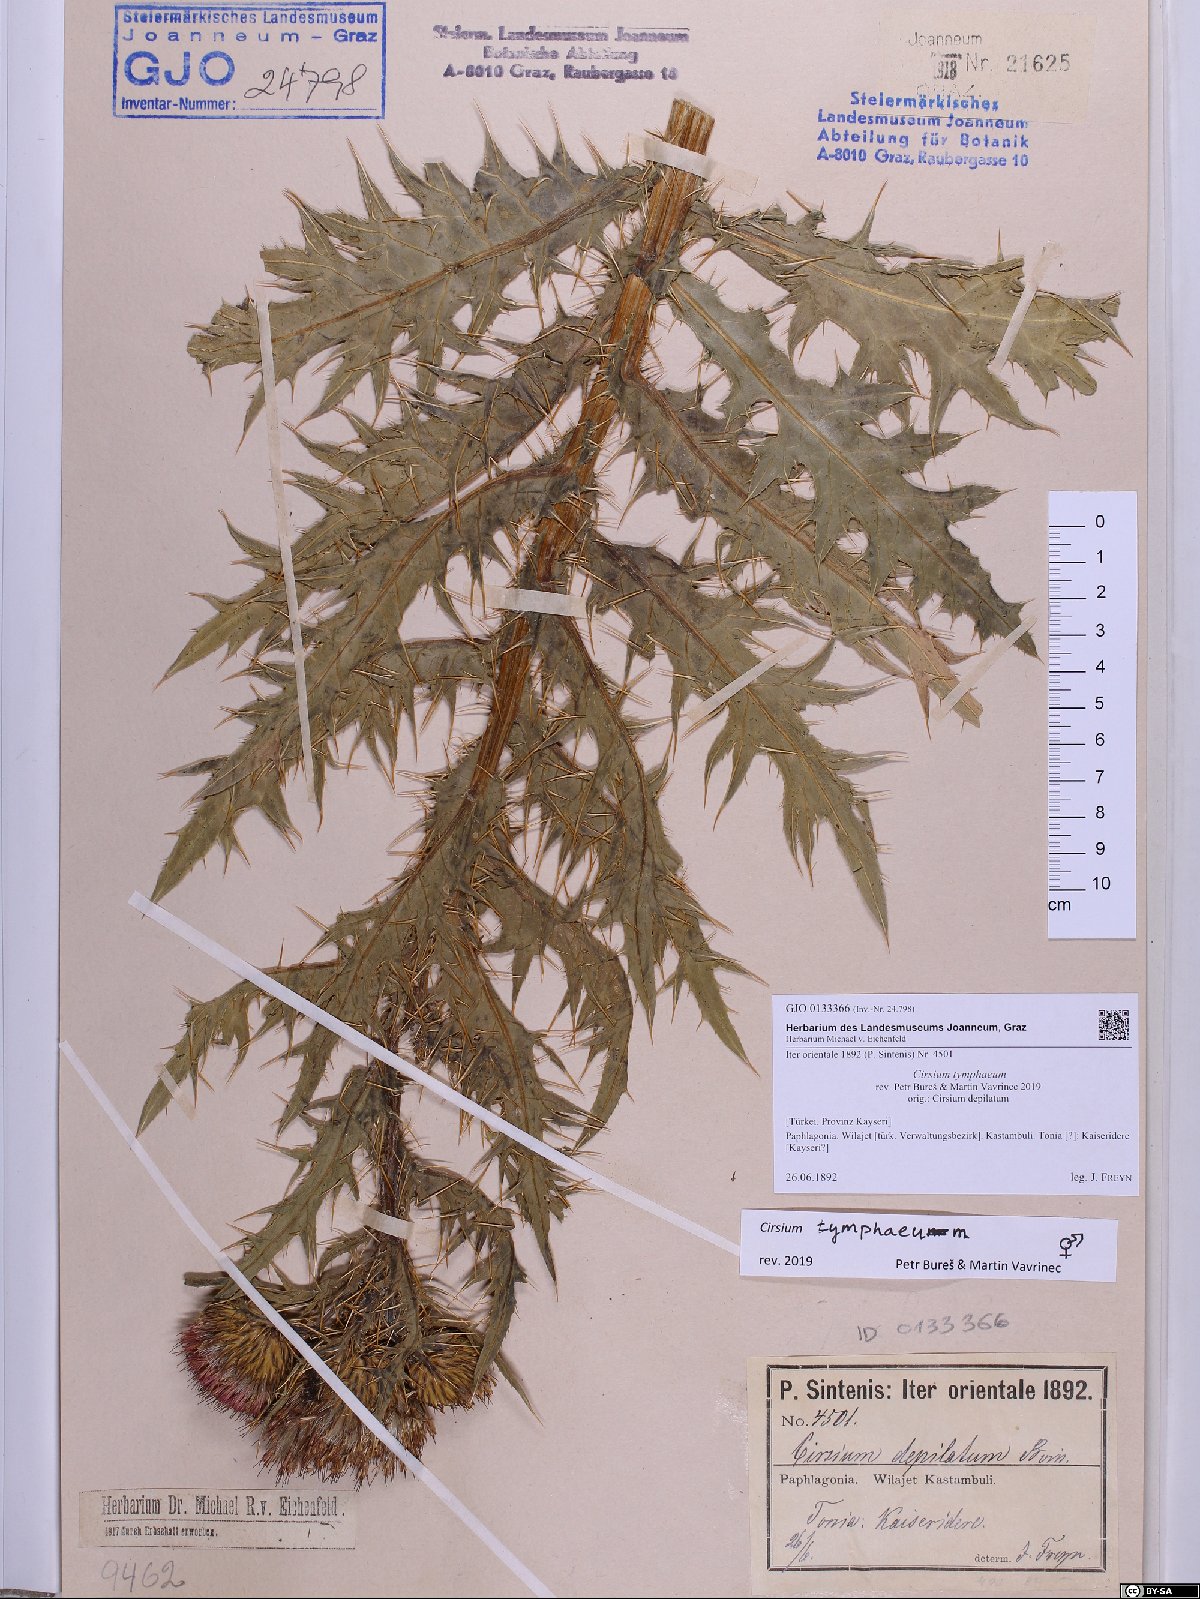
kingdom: Plantae
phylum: Tracheophyta
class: Magnoliopsida
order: Asterales
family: Asteraceae
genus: Cirsium
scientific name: Cirsium tymphaeum
